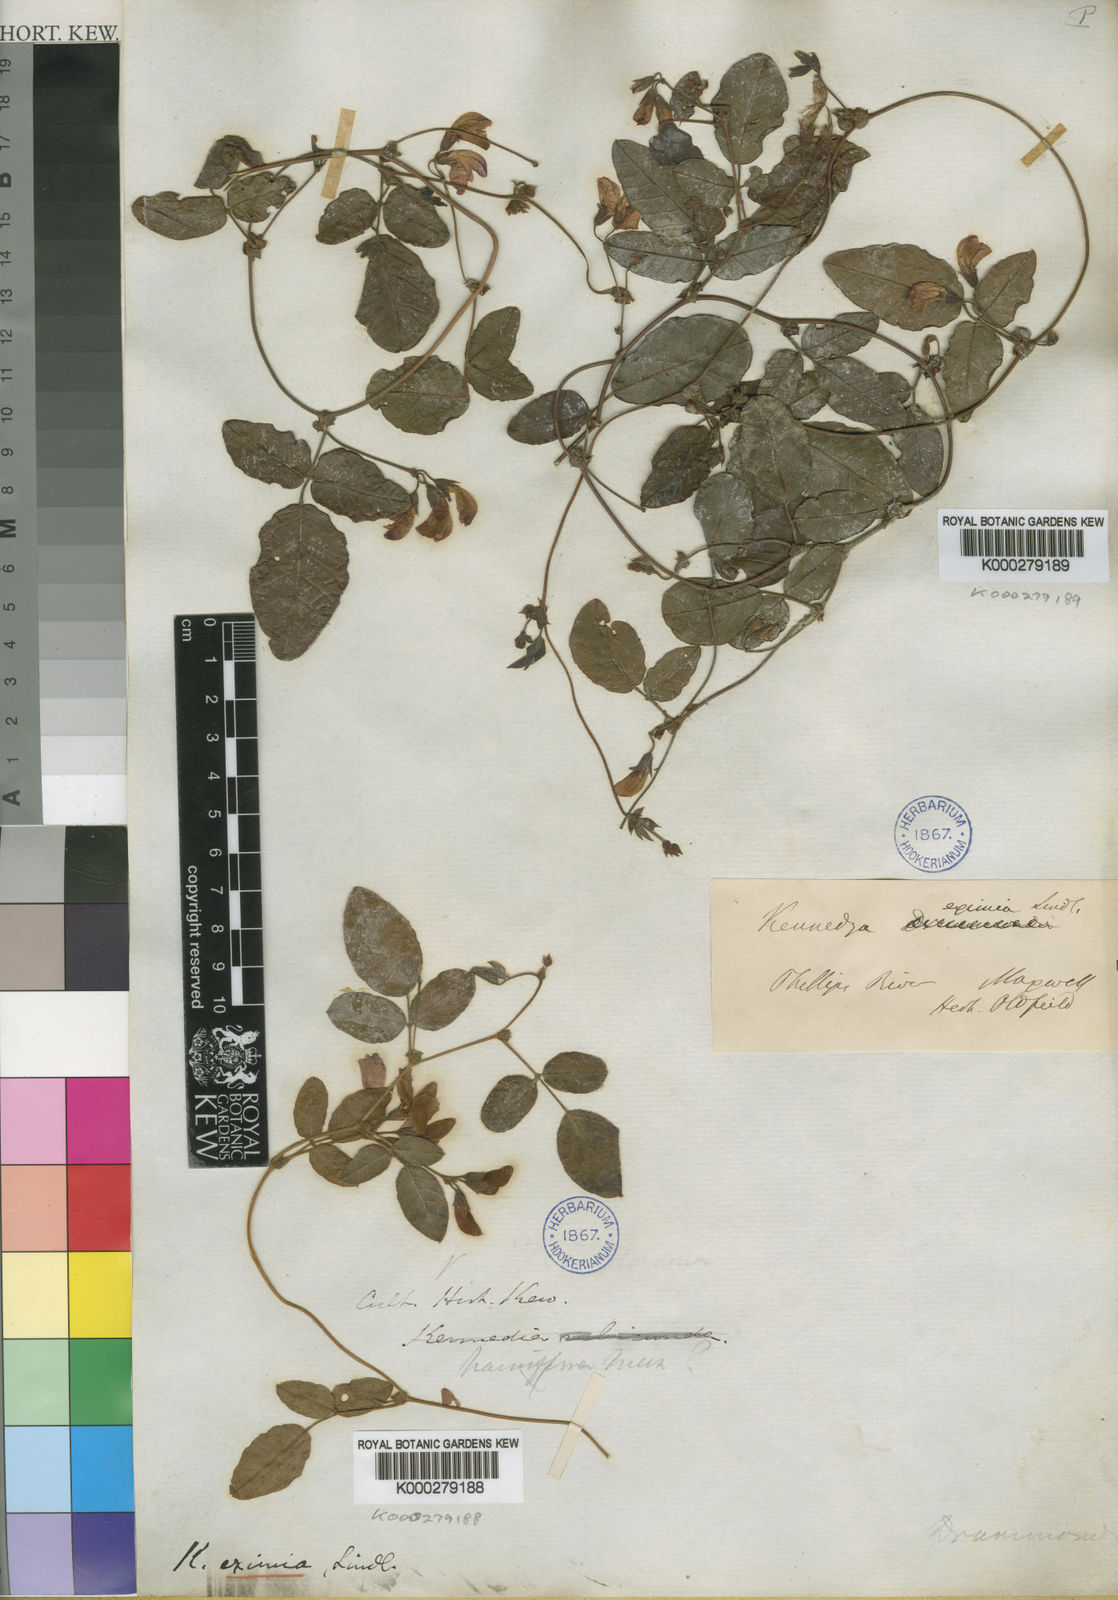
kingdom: Plantae
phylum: Tracheophyta
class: Magnoliopsida
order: Fabales
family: Fabaceae
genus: Kennedia
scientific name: Kennedia
